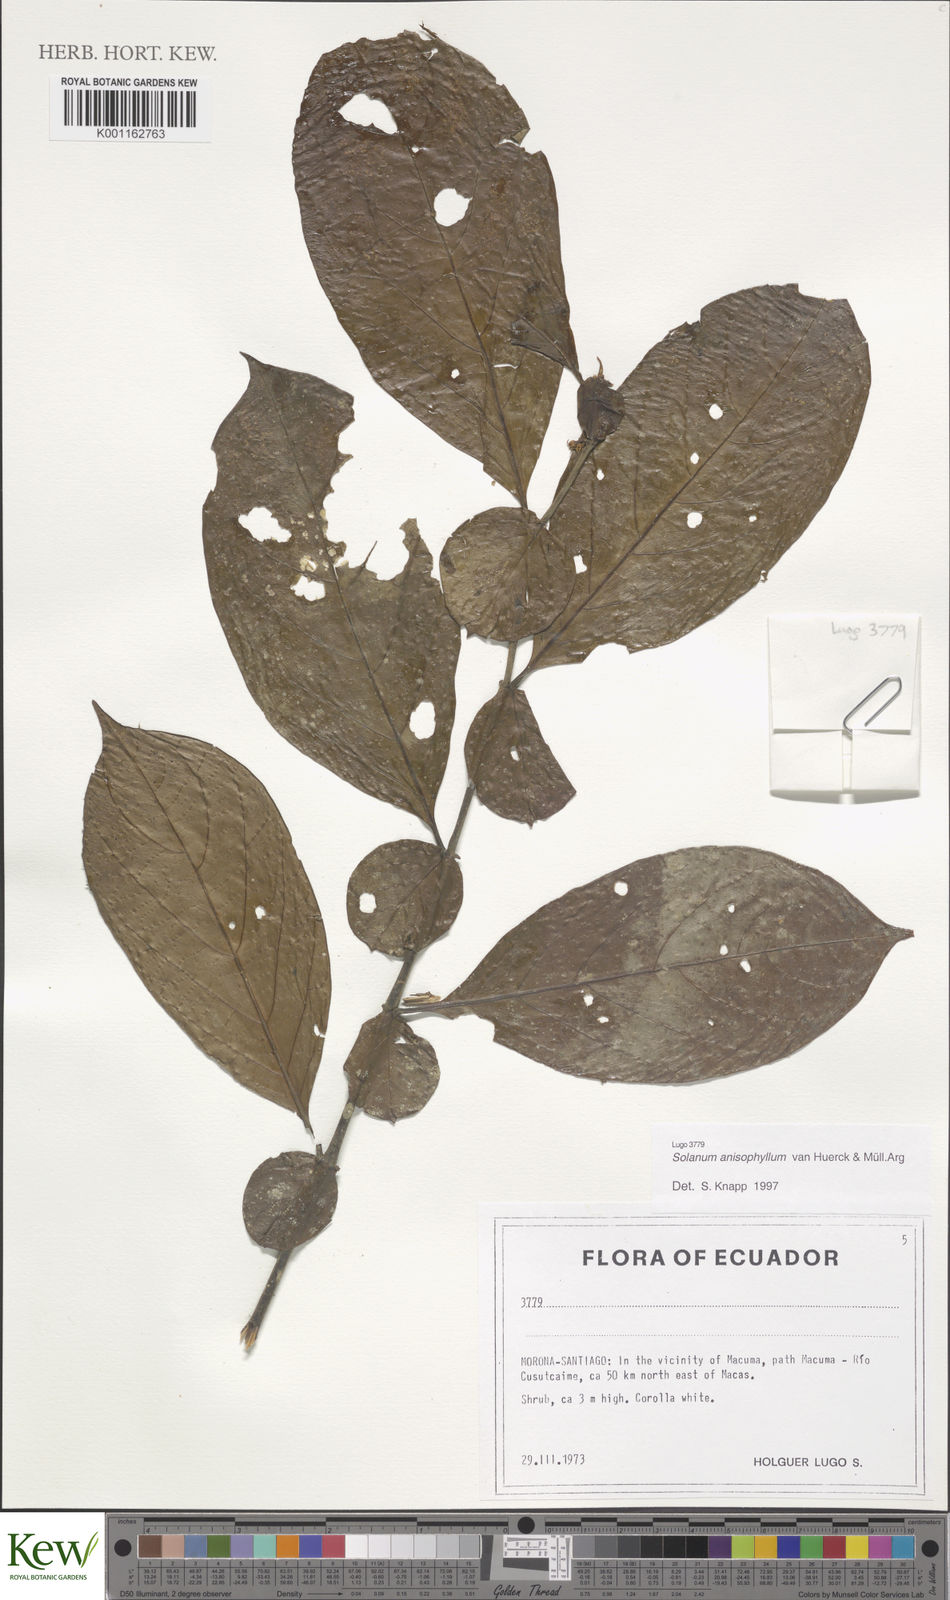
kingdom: Plantae
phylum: Tracheophyta
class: Magnoliopsida
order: Solanales
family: Solanaceae
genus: Solanum
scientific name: Solanum
